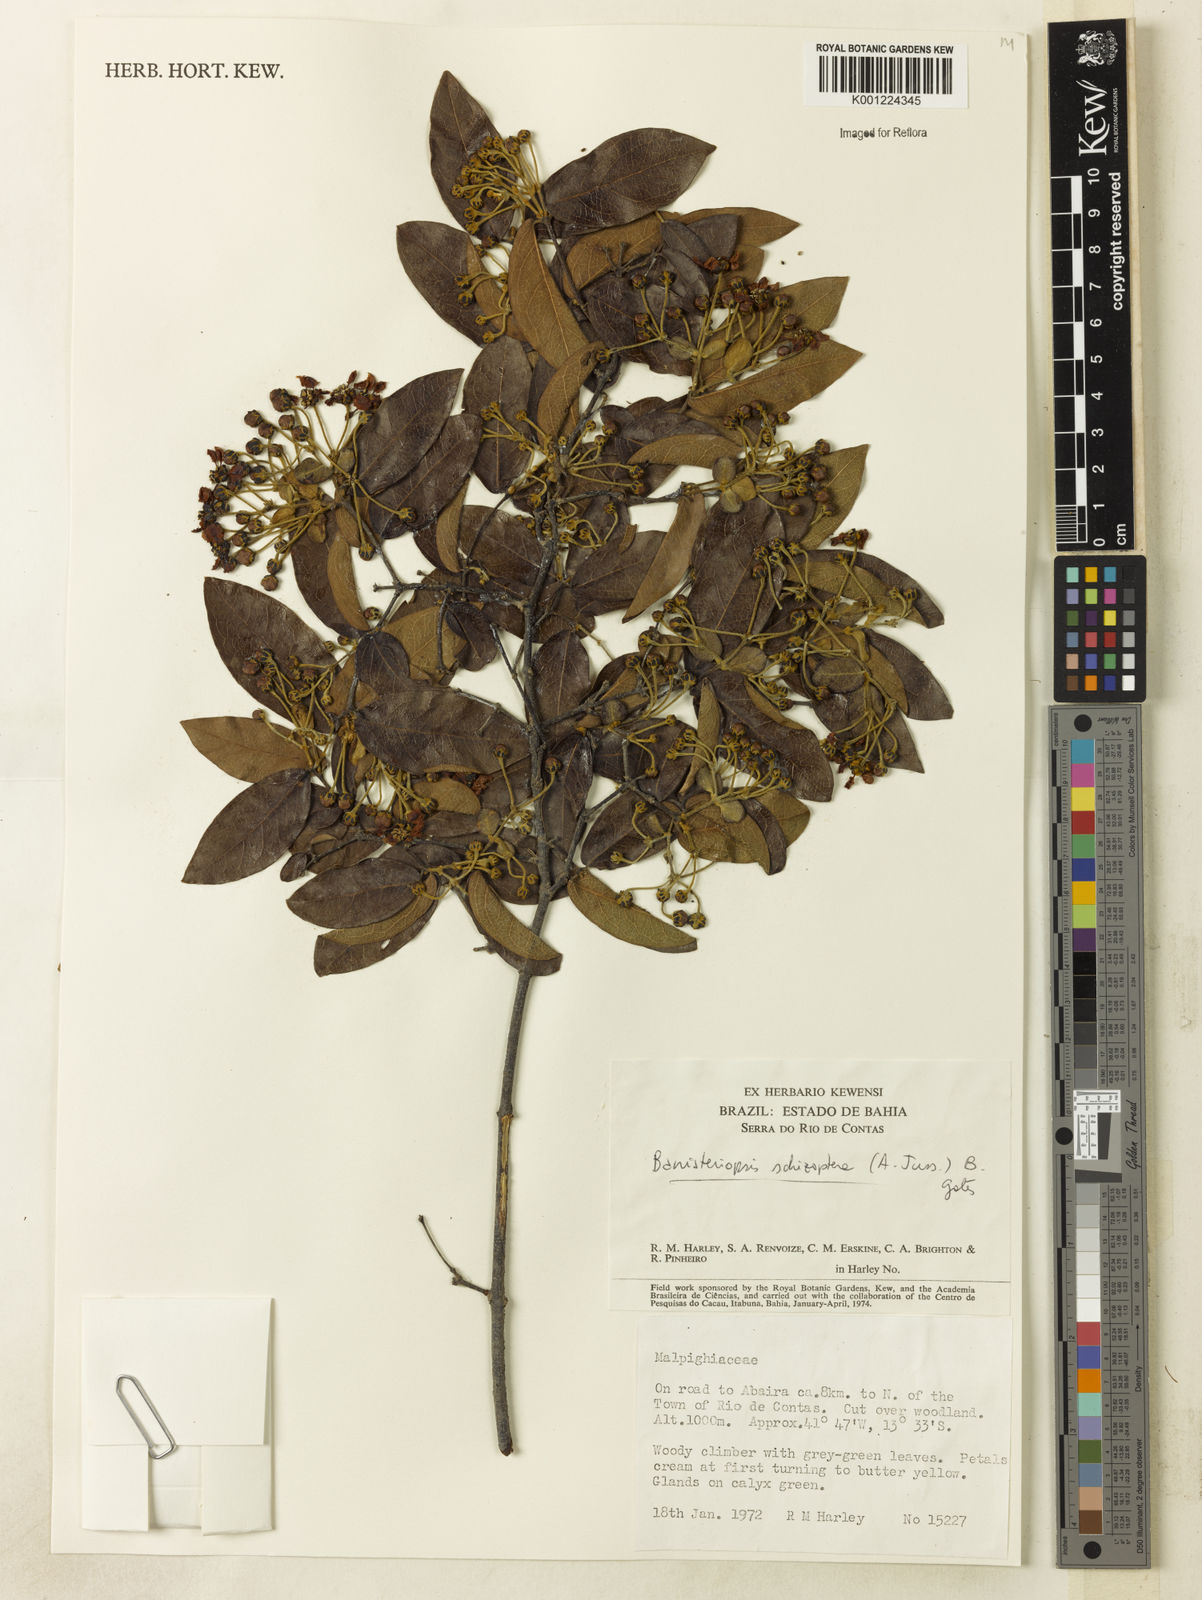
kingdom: Plantae
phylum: Tracheophyta
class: Magnoliopsida
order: Malpighiales
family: Malpighiaceae
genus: Banisteriopsis
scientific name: Banisteriopsis schizoptera
